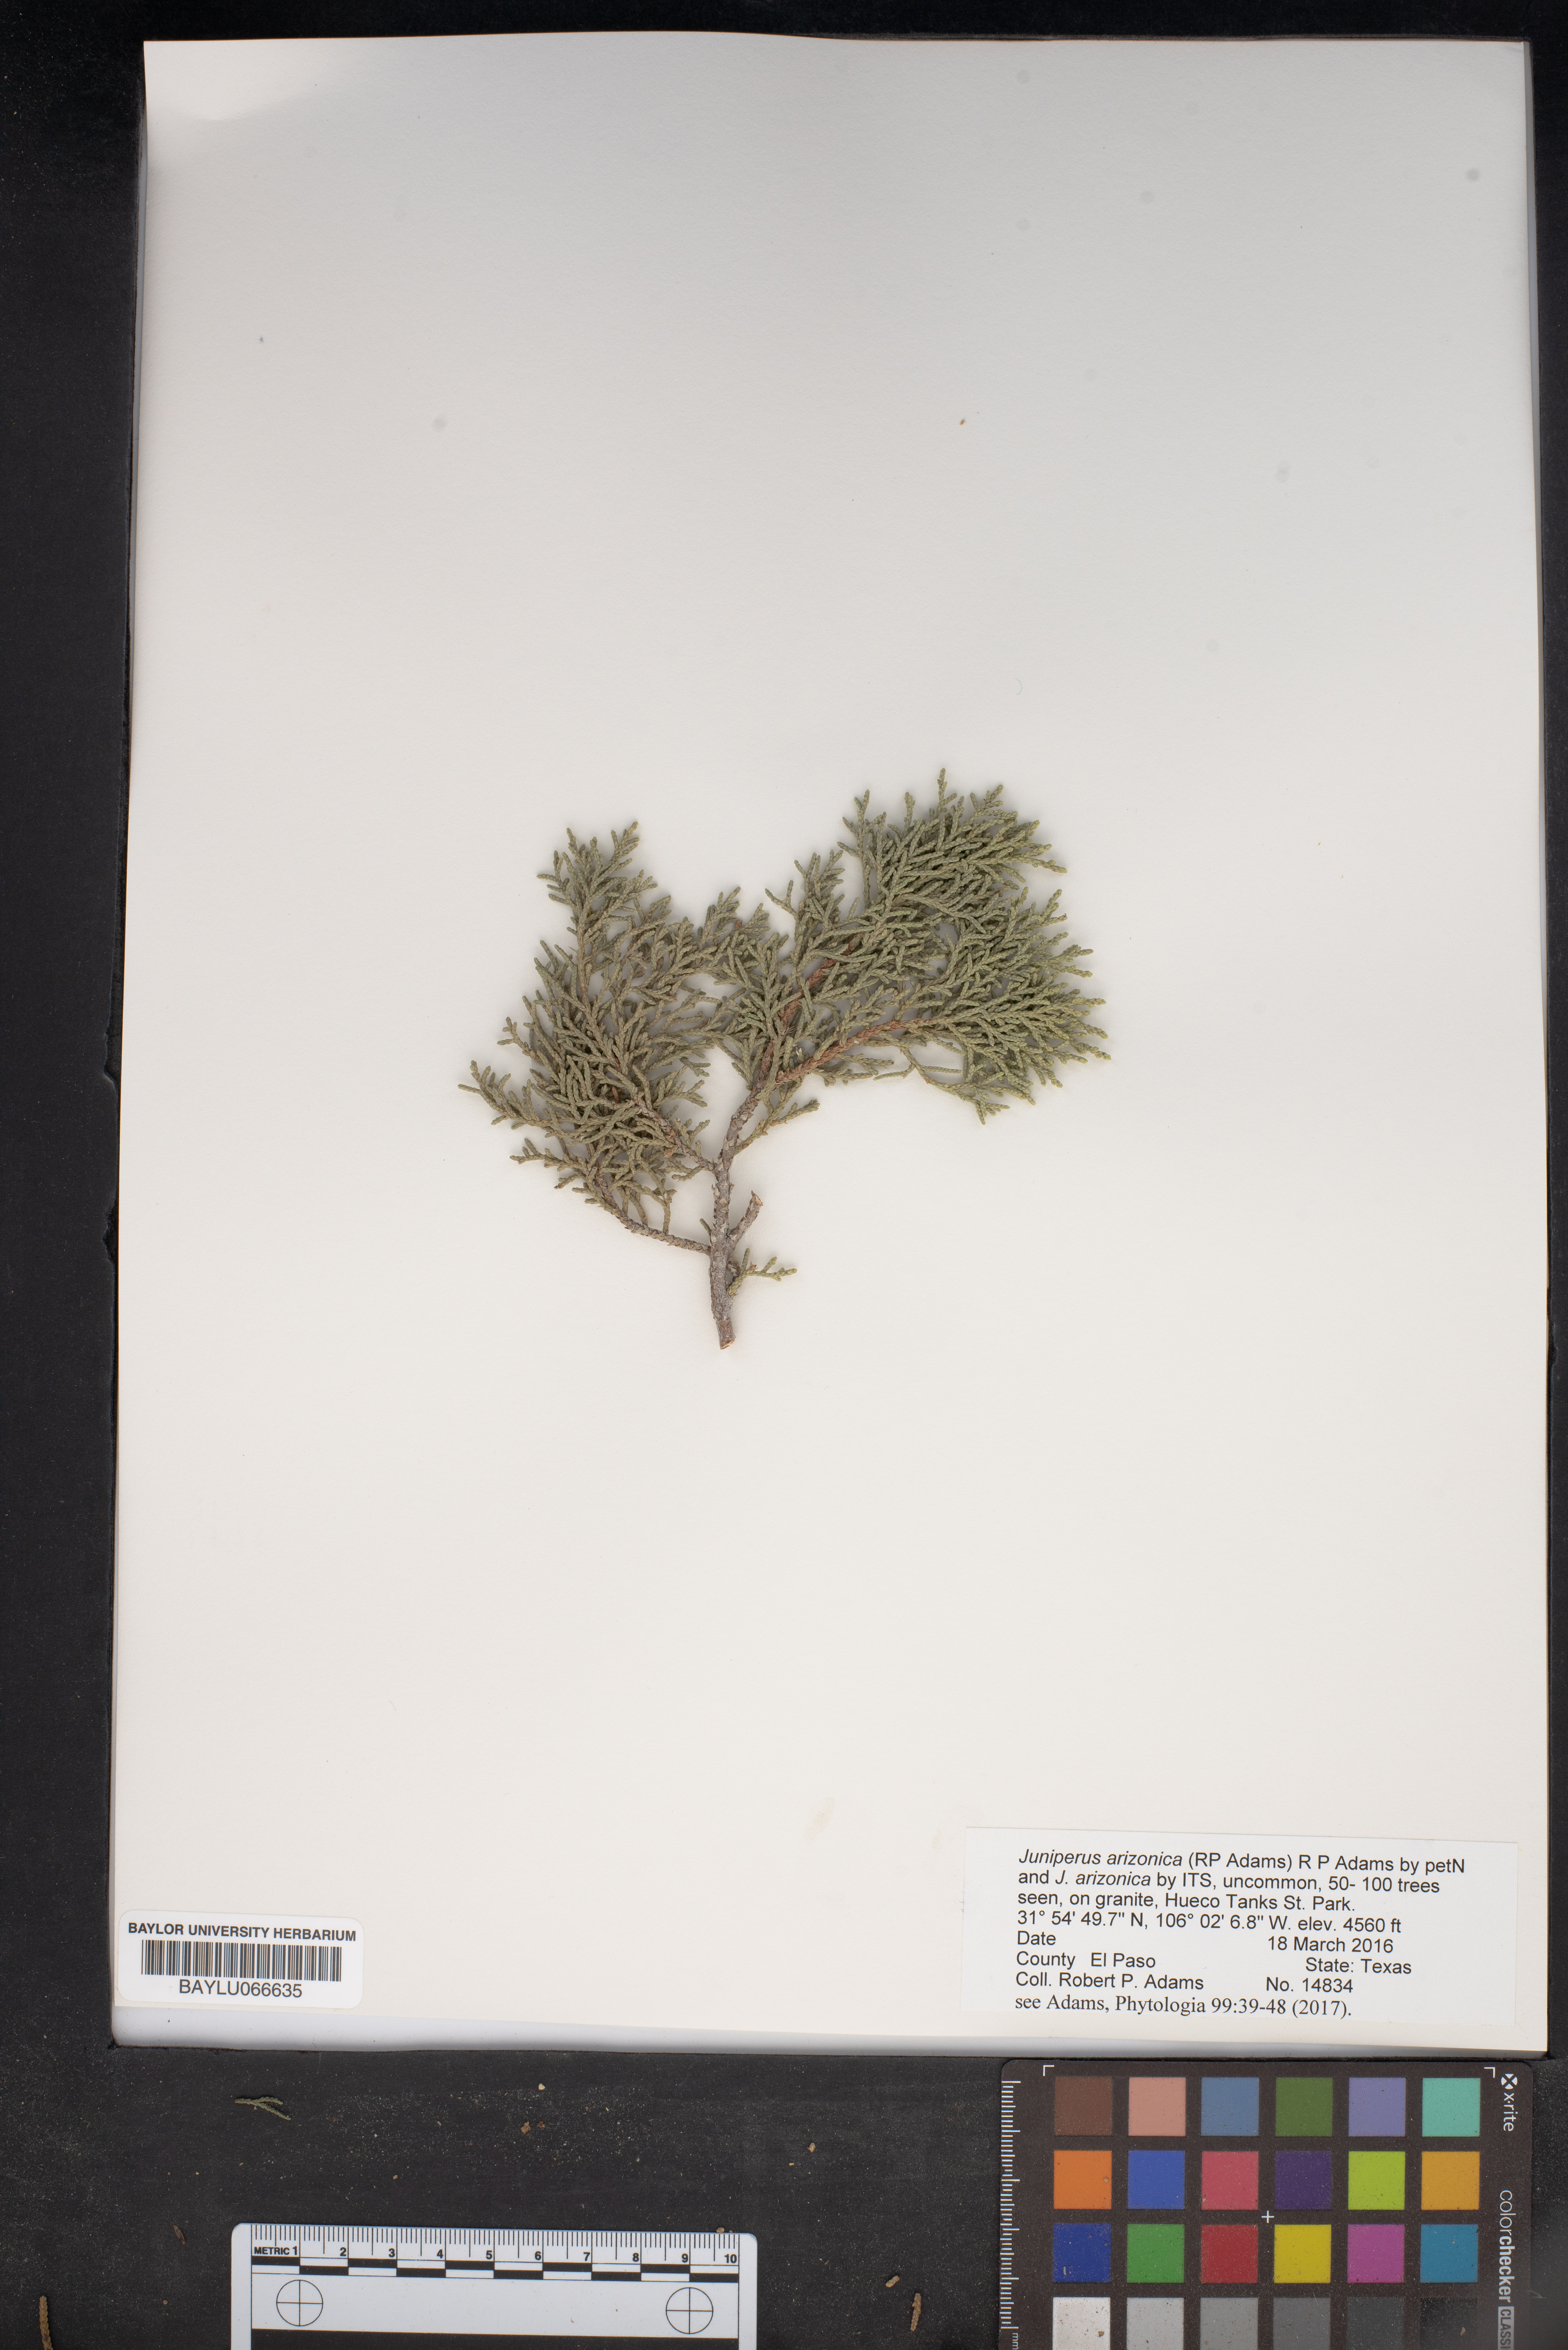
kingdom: Plantae
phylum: Tracheophyta
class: Pinopsida
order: Pinales
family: Cupressaceae
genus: Juniperus
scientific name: Juniperus arizonica
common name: Arizona juniper
